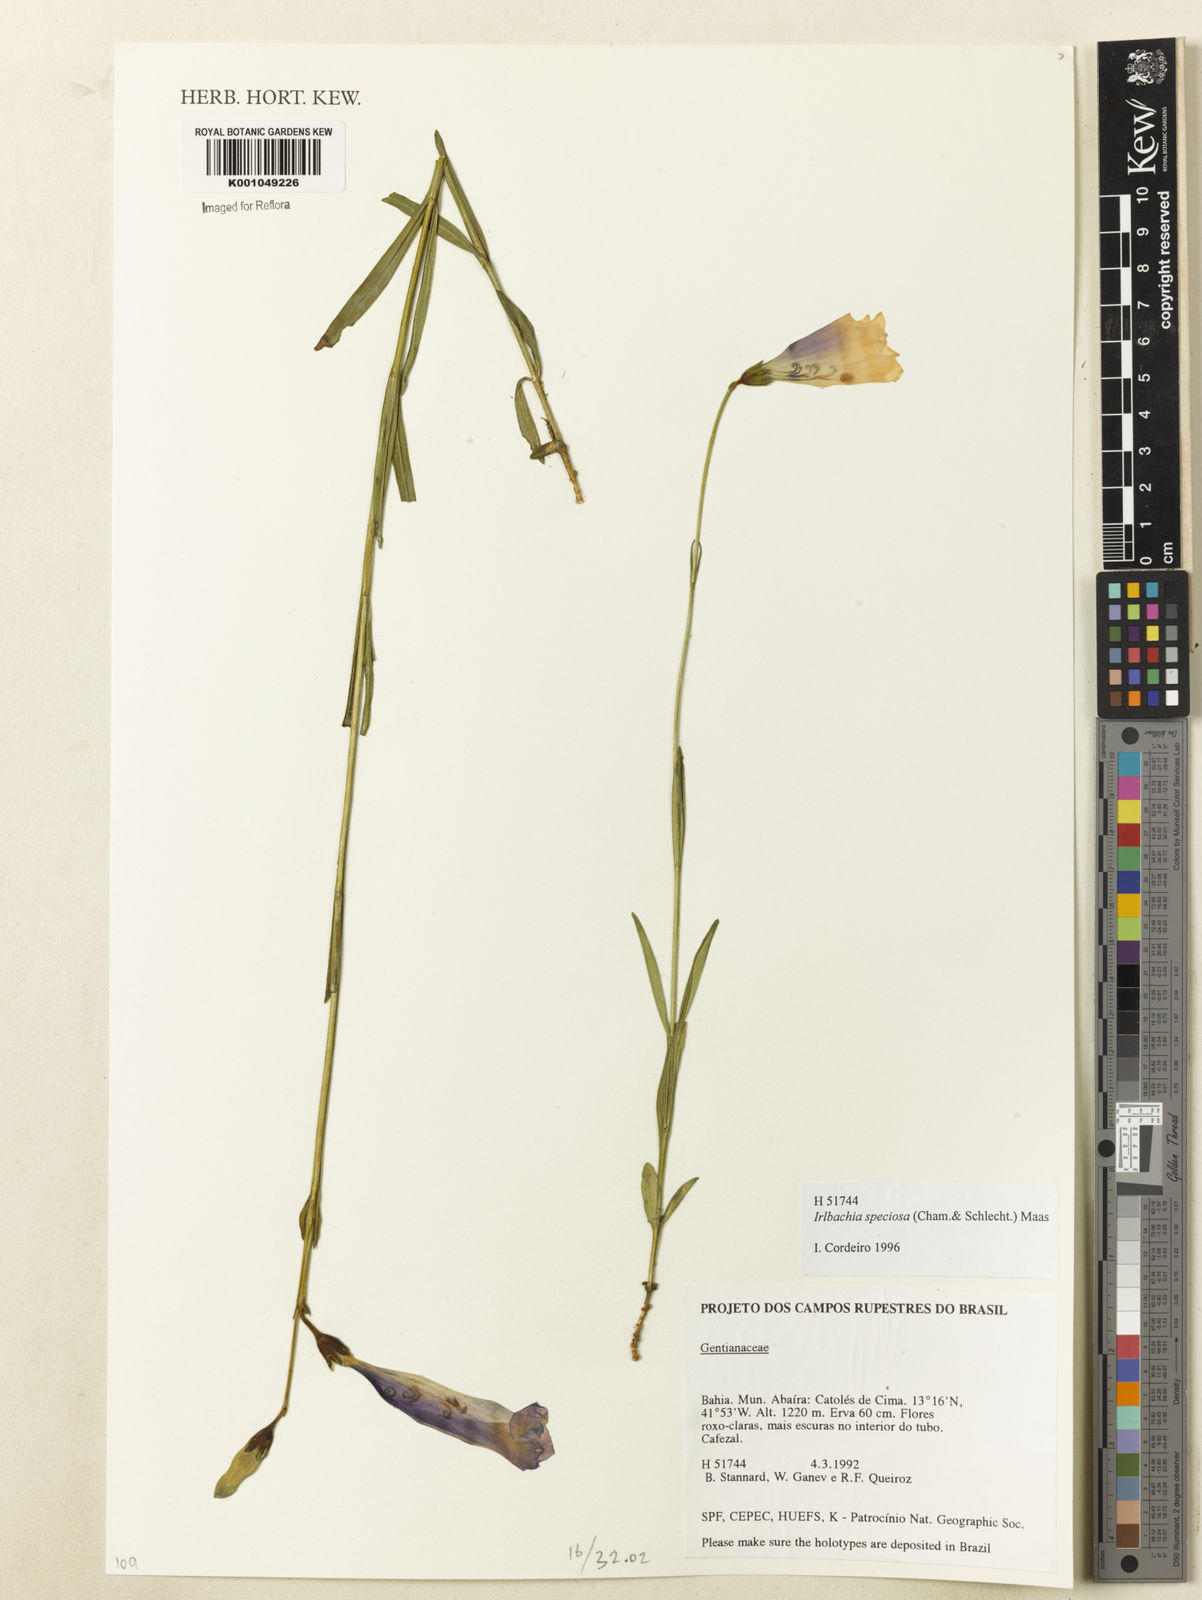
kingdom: Plantae
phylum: Tracheophyta
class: Magnoliopsida
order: Gentianales
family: Gentianaceae
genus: Calolisianthus
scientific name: Calolisianthus speciosus
